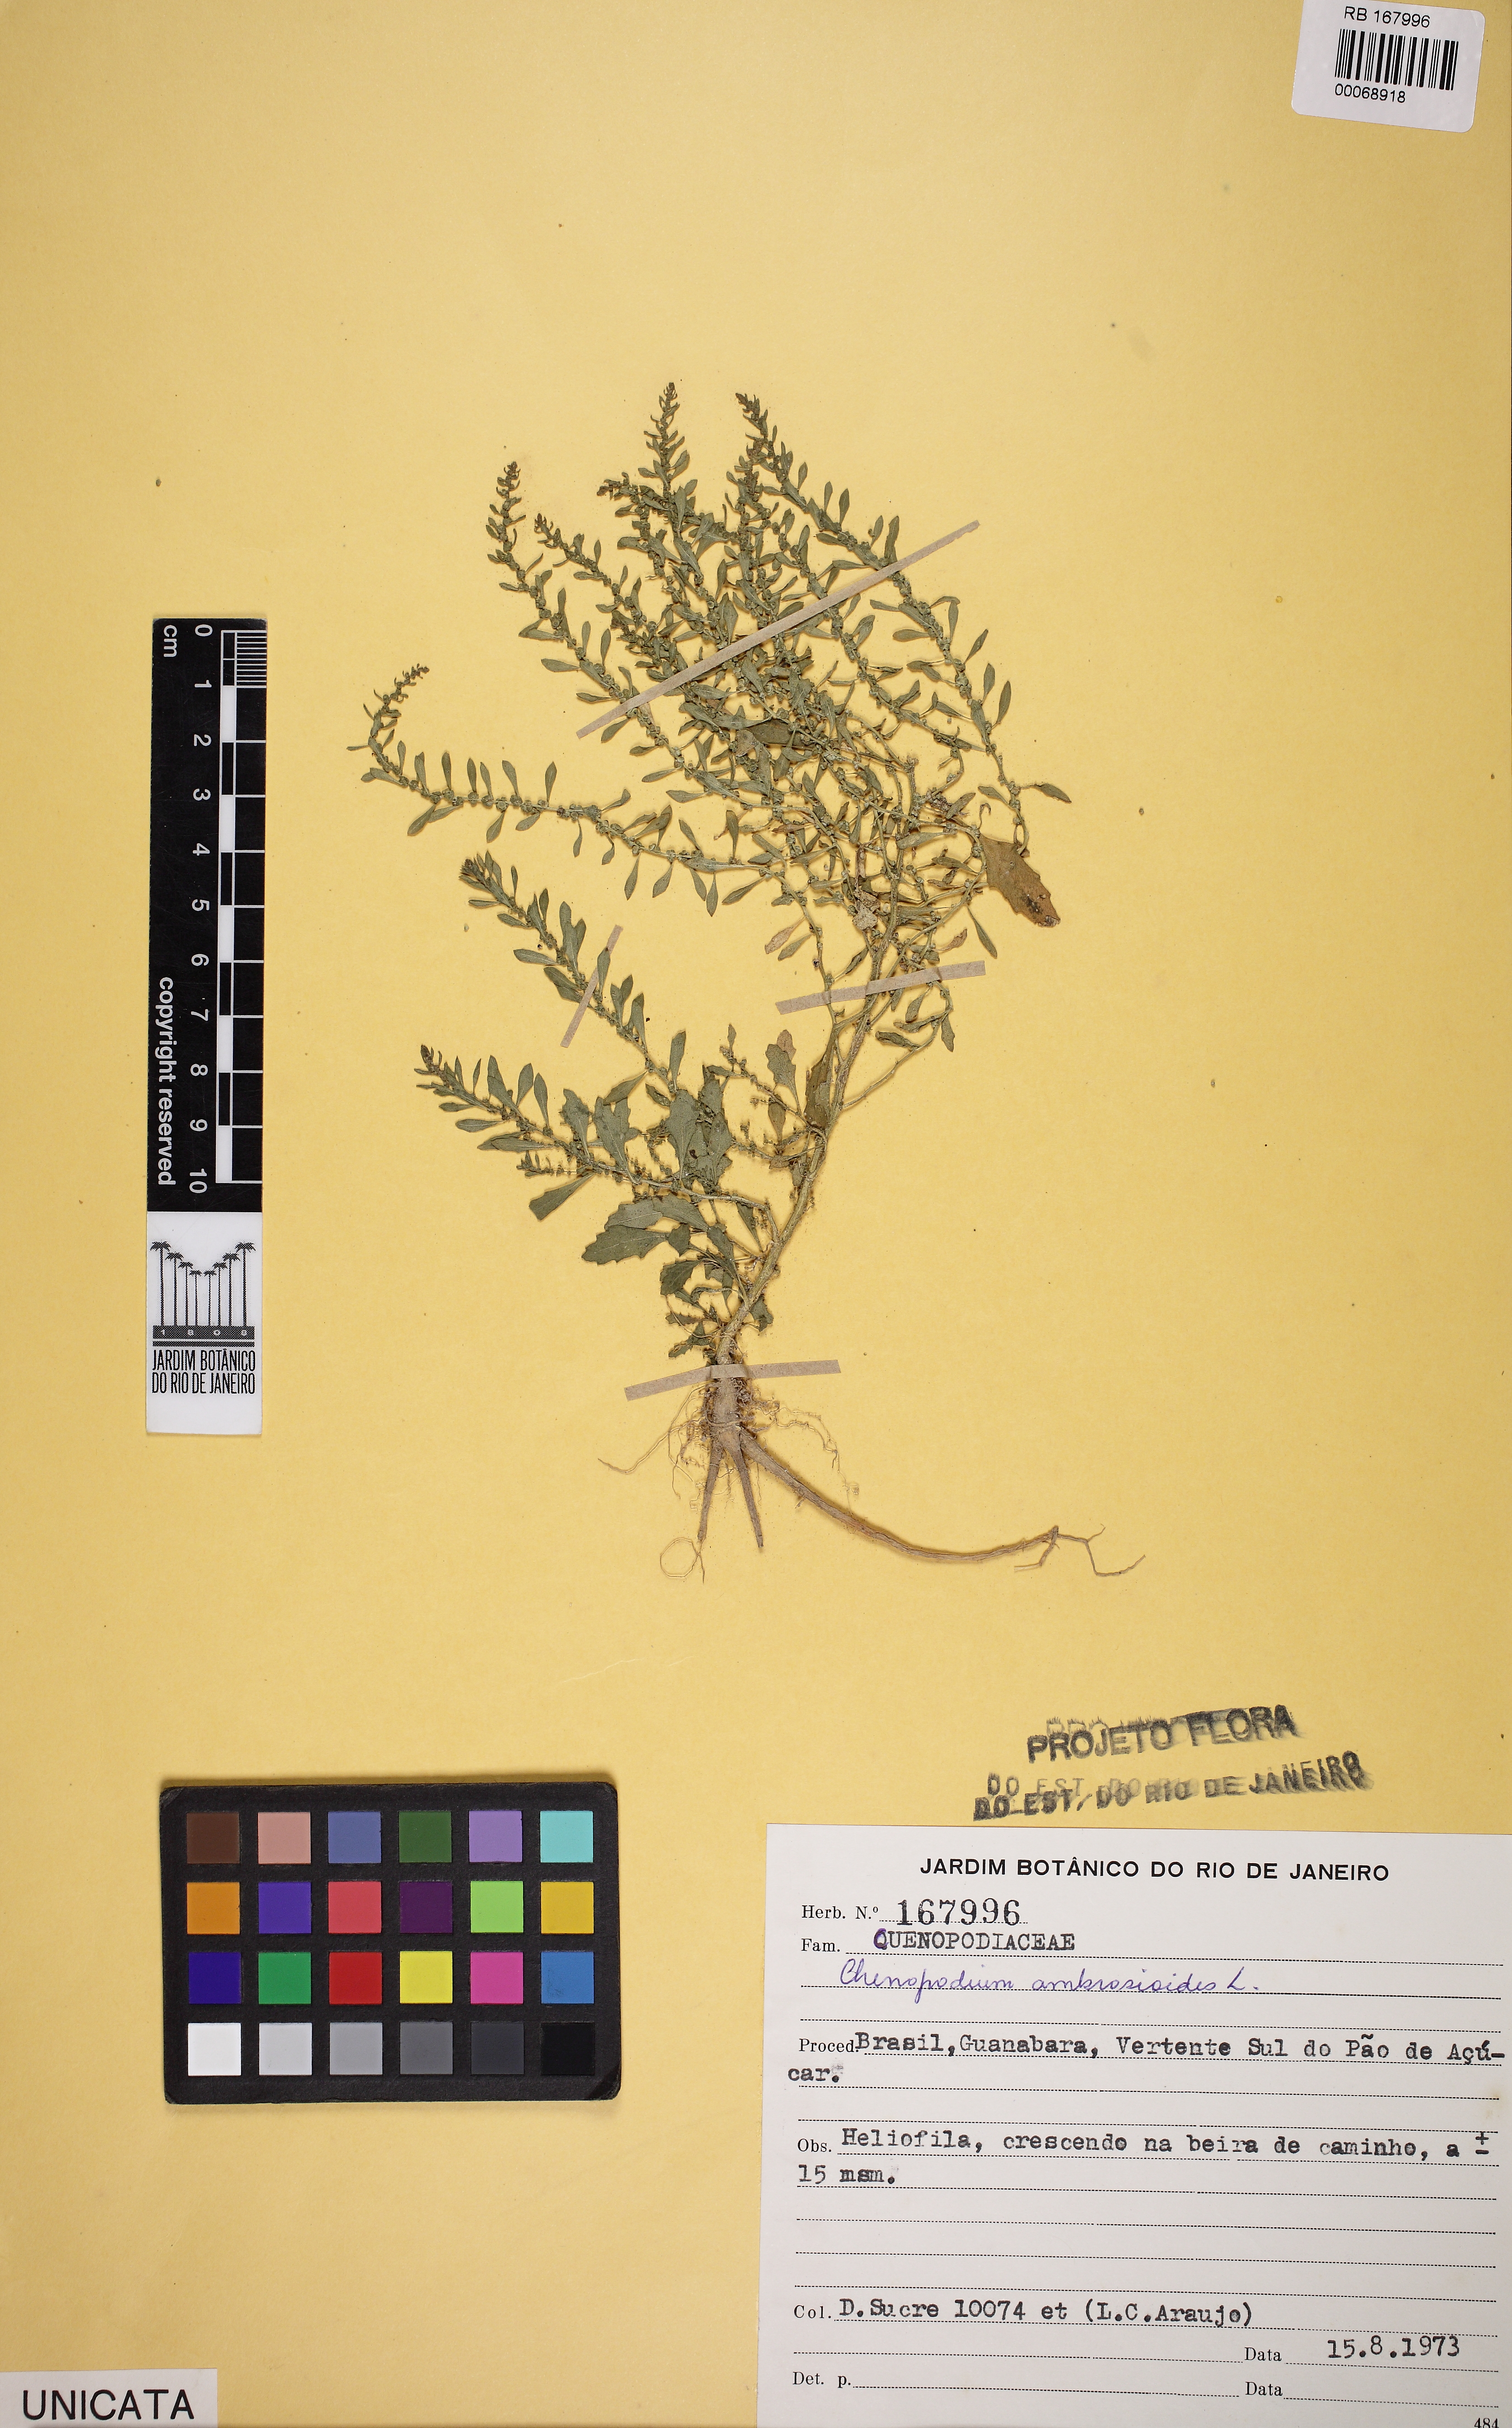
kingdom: Plantae
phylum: Tracheophyta
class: Magnoliopsida
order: Caryophyllales
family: Amaranthaceae
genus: Dysphania
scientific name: Dysphania ambrosioides
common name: Wormseed
